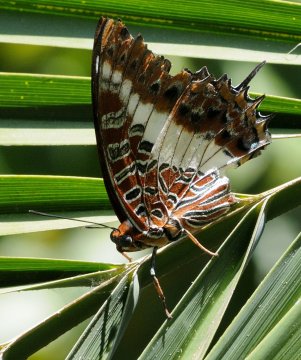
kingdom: Animalia
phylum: Arthropoda
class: Insecta
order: Lepidoptera
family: Nymphalidae
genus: Charaxes
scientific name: Charaxes brutus
